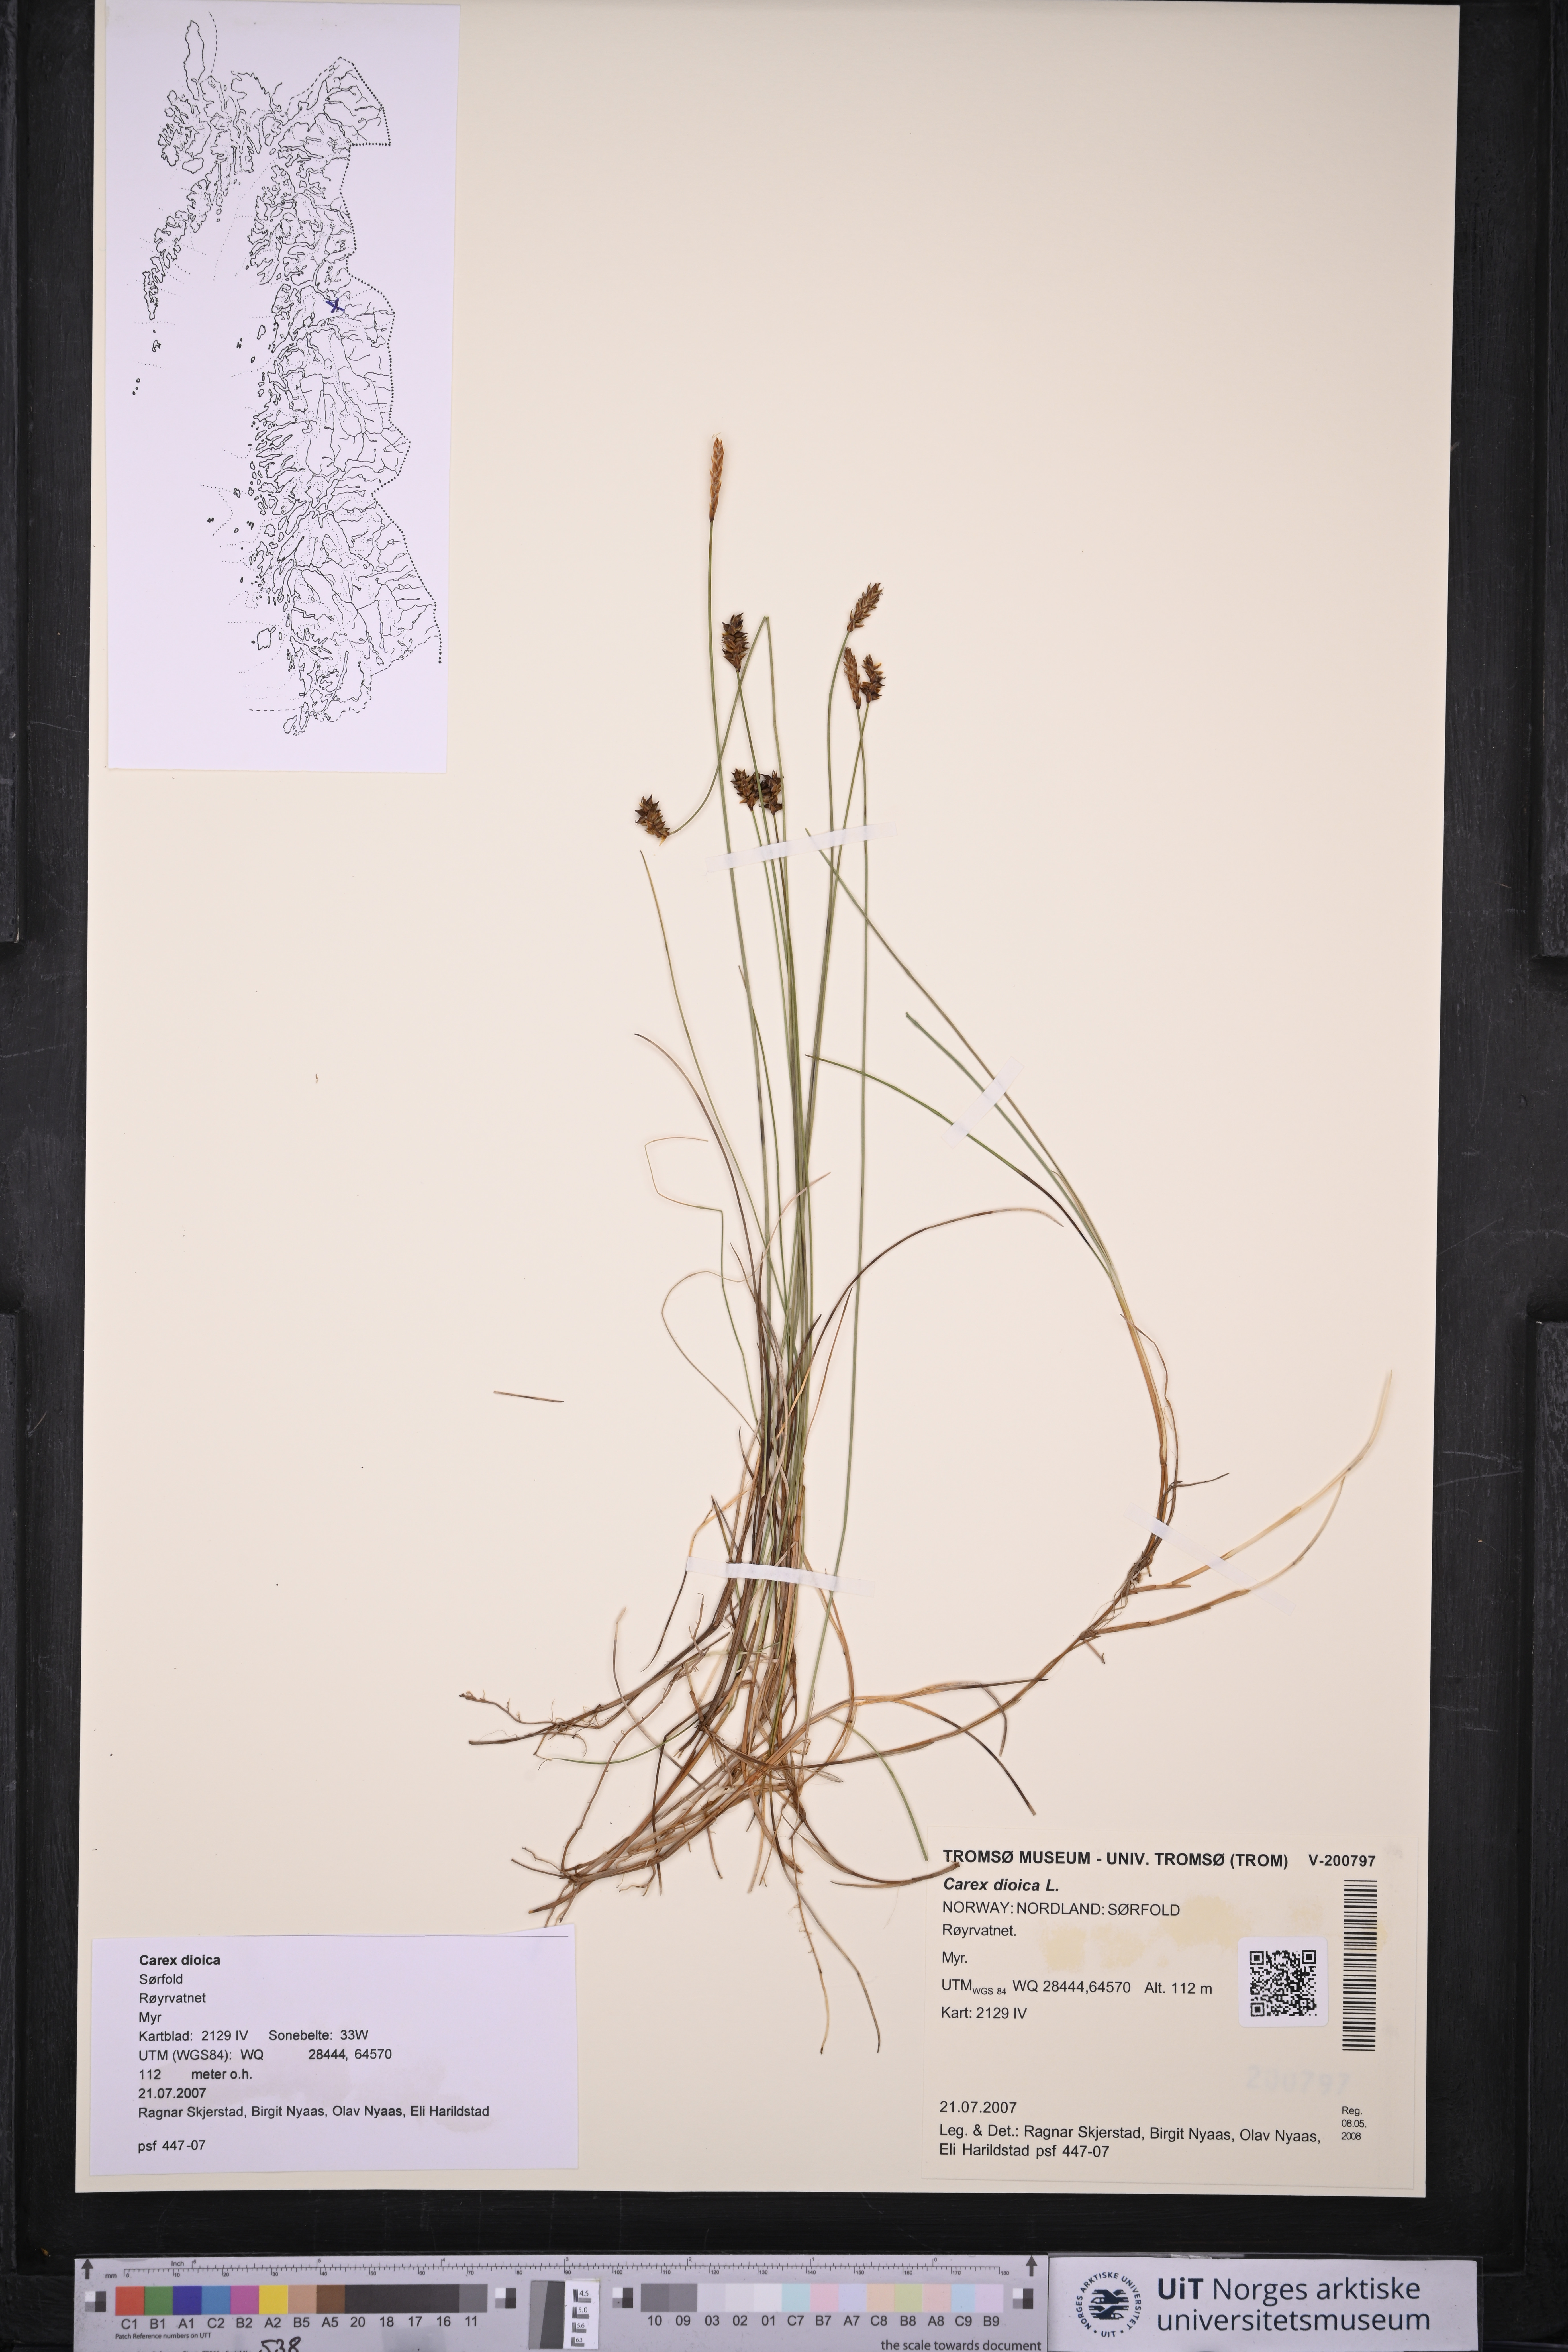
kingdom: Plantae
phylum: Tracheophyta
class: Liliopsida
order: Poales
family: Cyperaceae
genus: Carex
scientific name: Carex dioica
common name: Dioecious sedge
